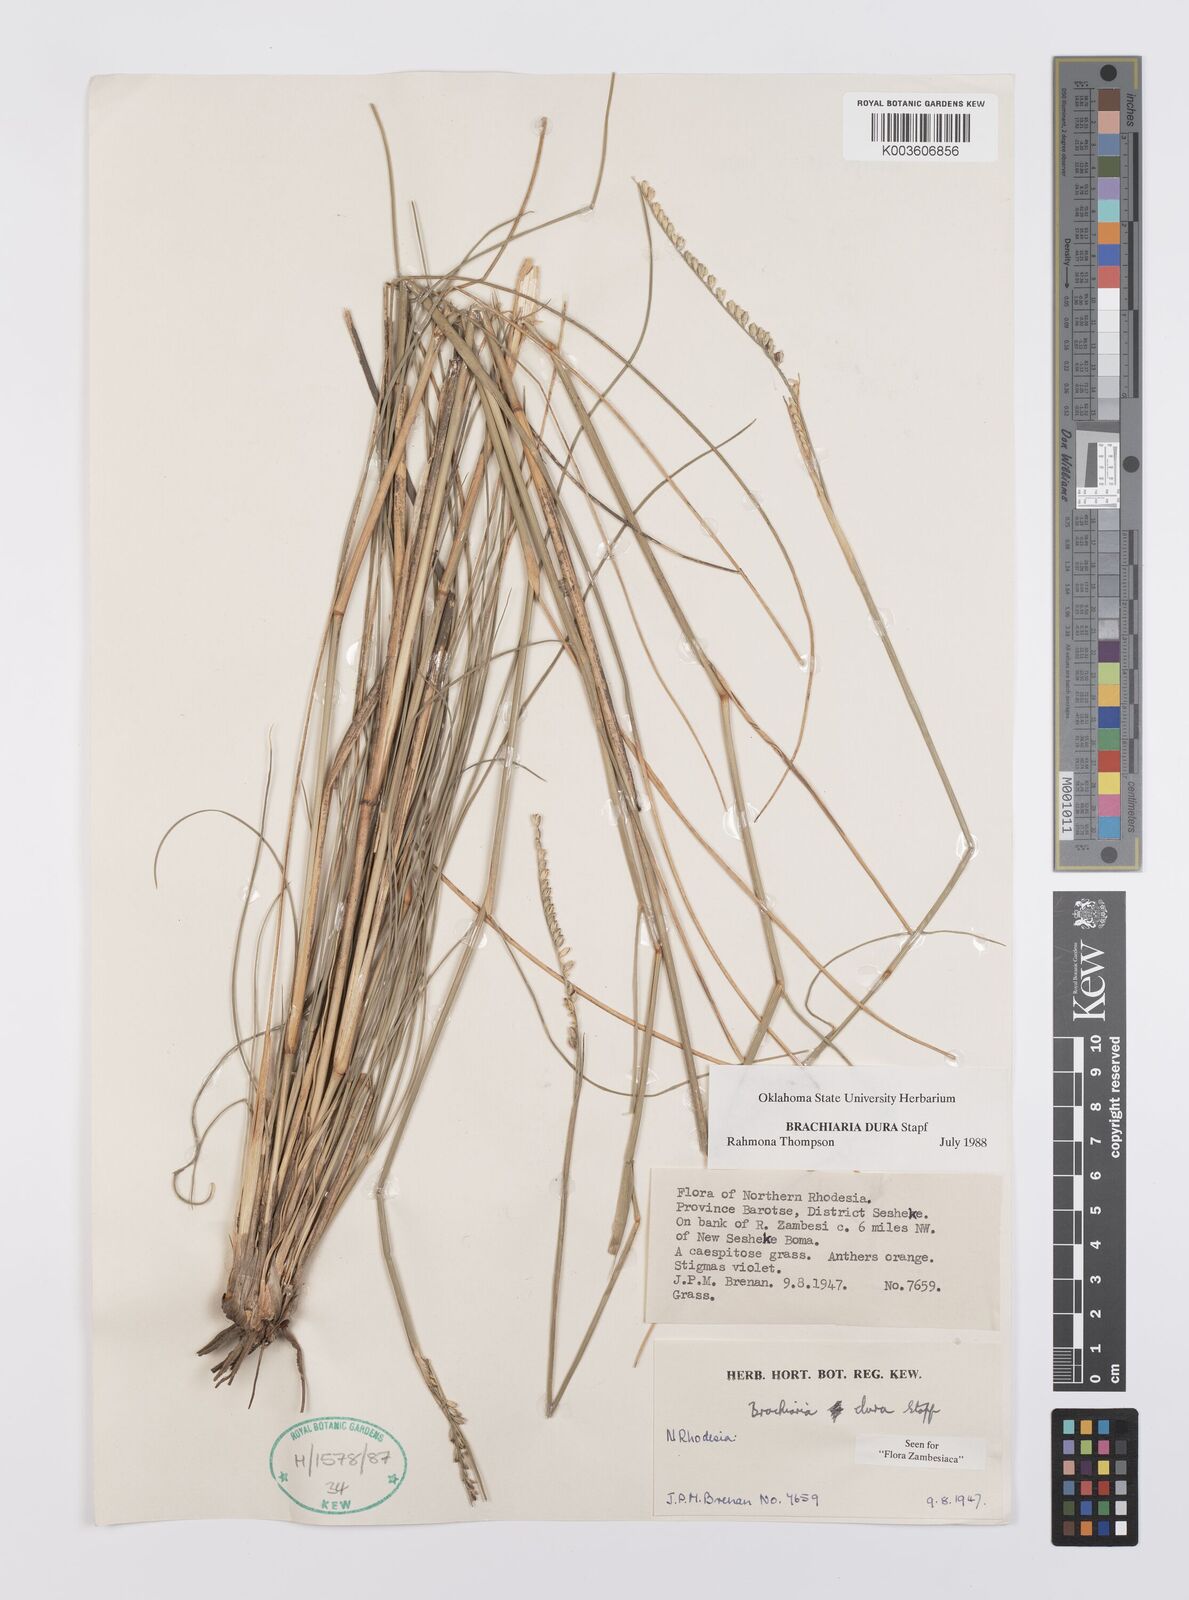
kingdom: Plantae
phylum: Tracheophyta
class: Liliopsida
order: Poales
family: Poaceae
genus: Urochloa
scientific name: Urochloa dura
